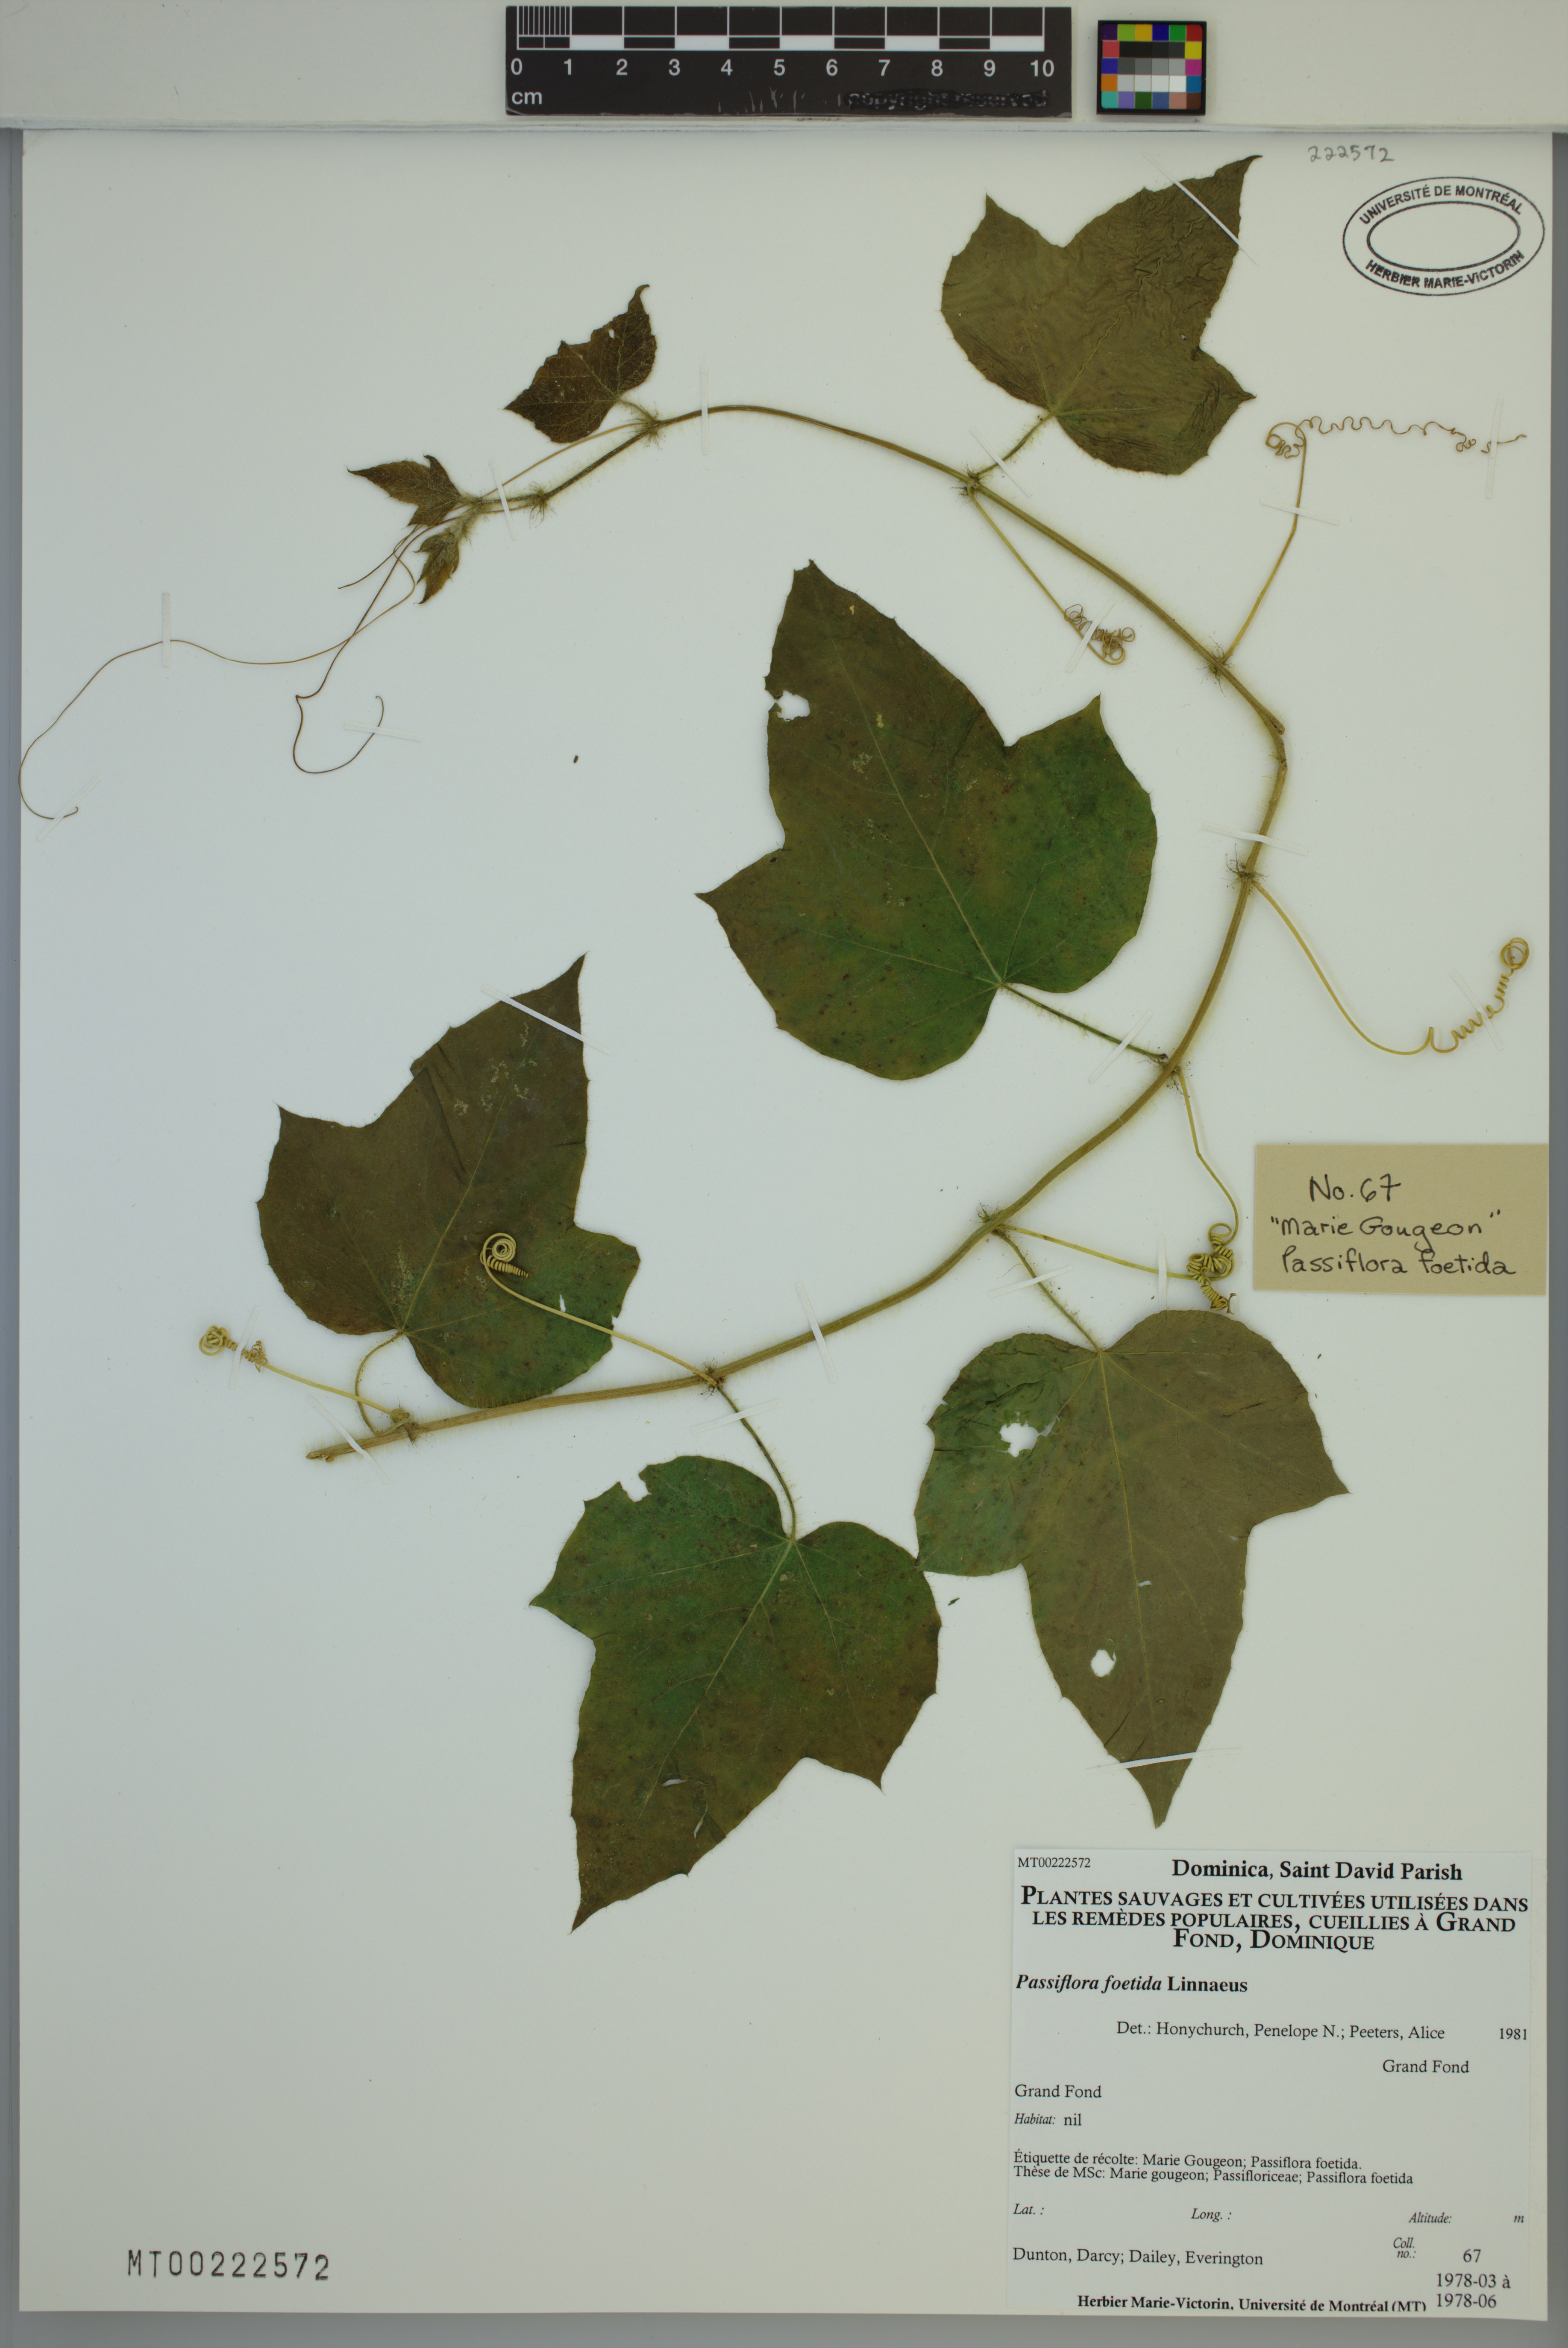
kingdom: Plantae
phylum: Tracheophyta
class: Magnoliopsida
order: Malpighiales
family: Passifloraceae
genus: Passiflora
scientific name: Passiflora foetida
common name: Fetid passionflower
